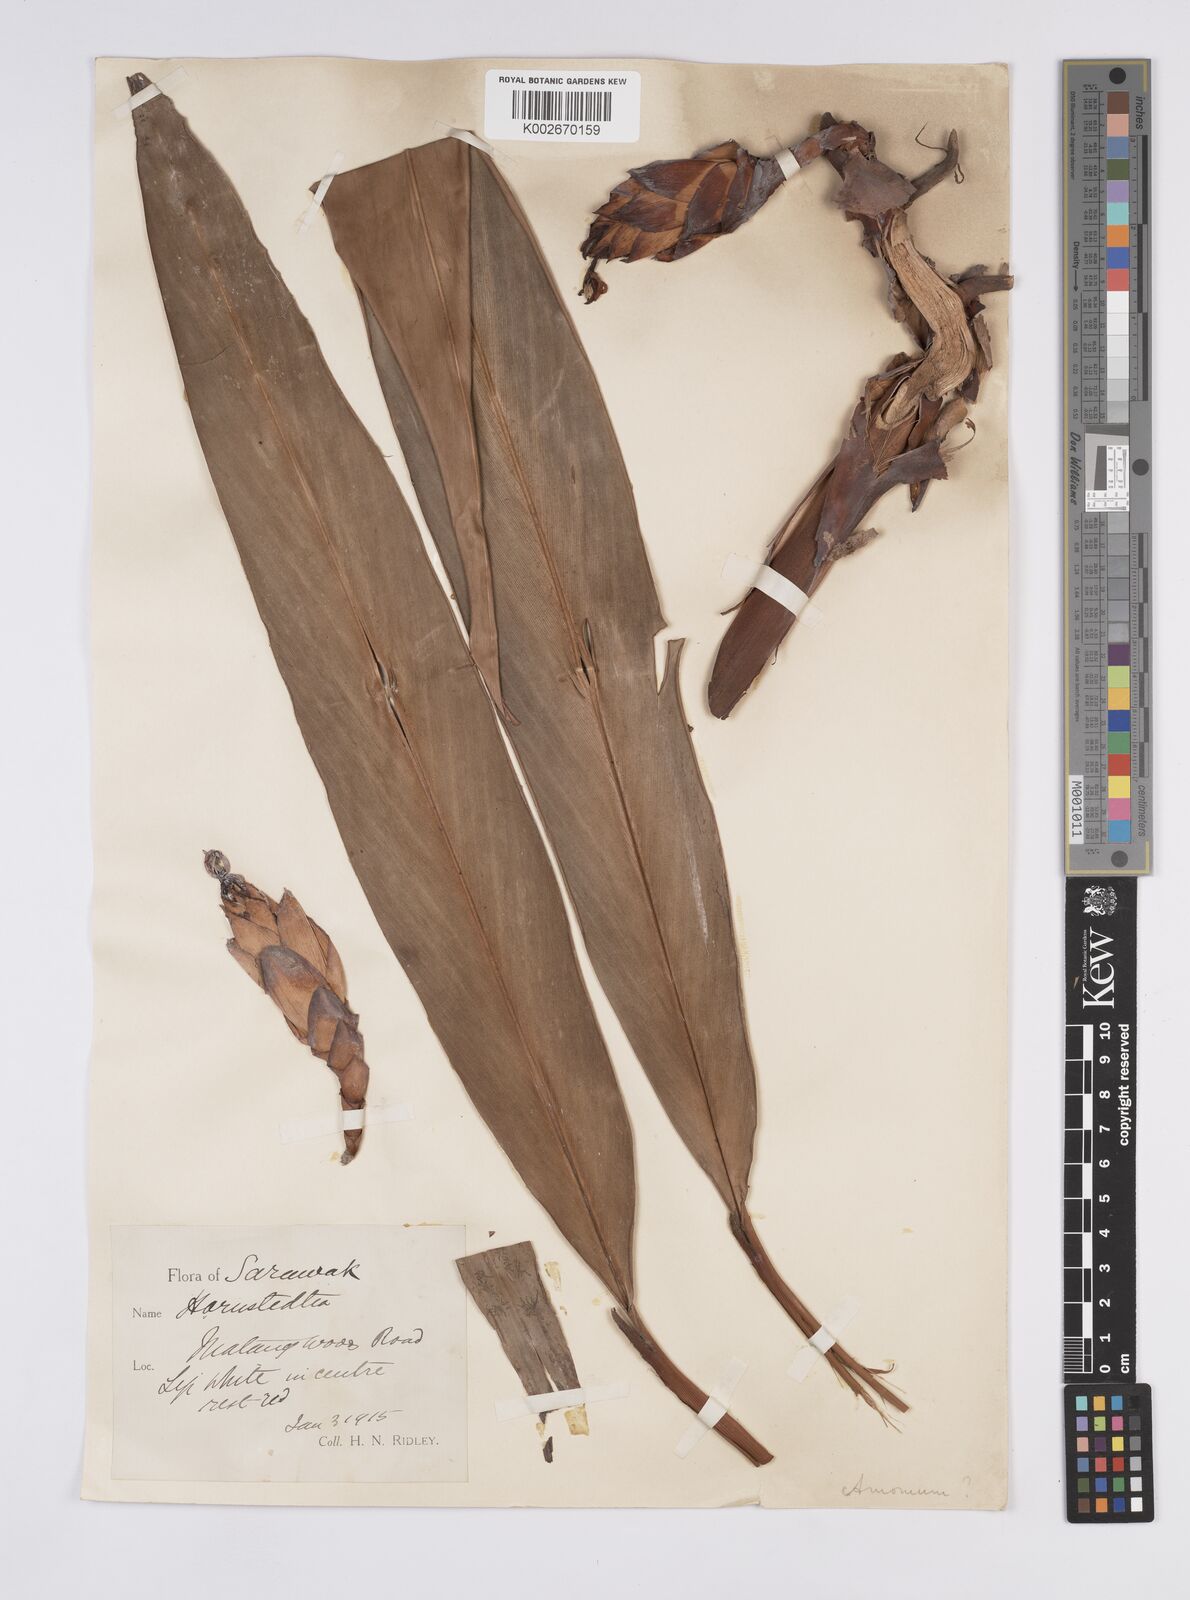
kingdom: Plantae
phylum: Tracheophyta
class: Liliopsida
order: Zingiberales
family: Zingiberaceae
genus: Hornstedtia
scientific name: Hornstedtia affinis
